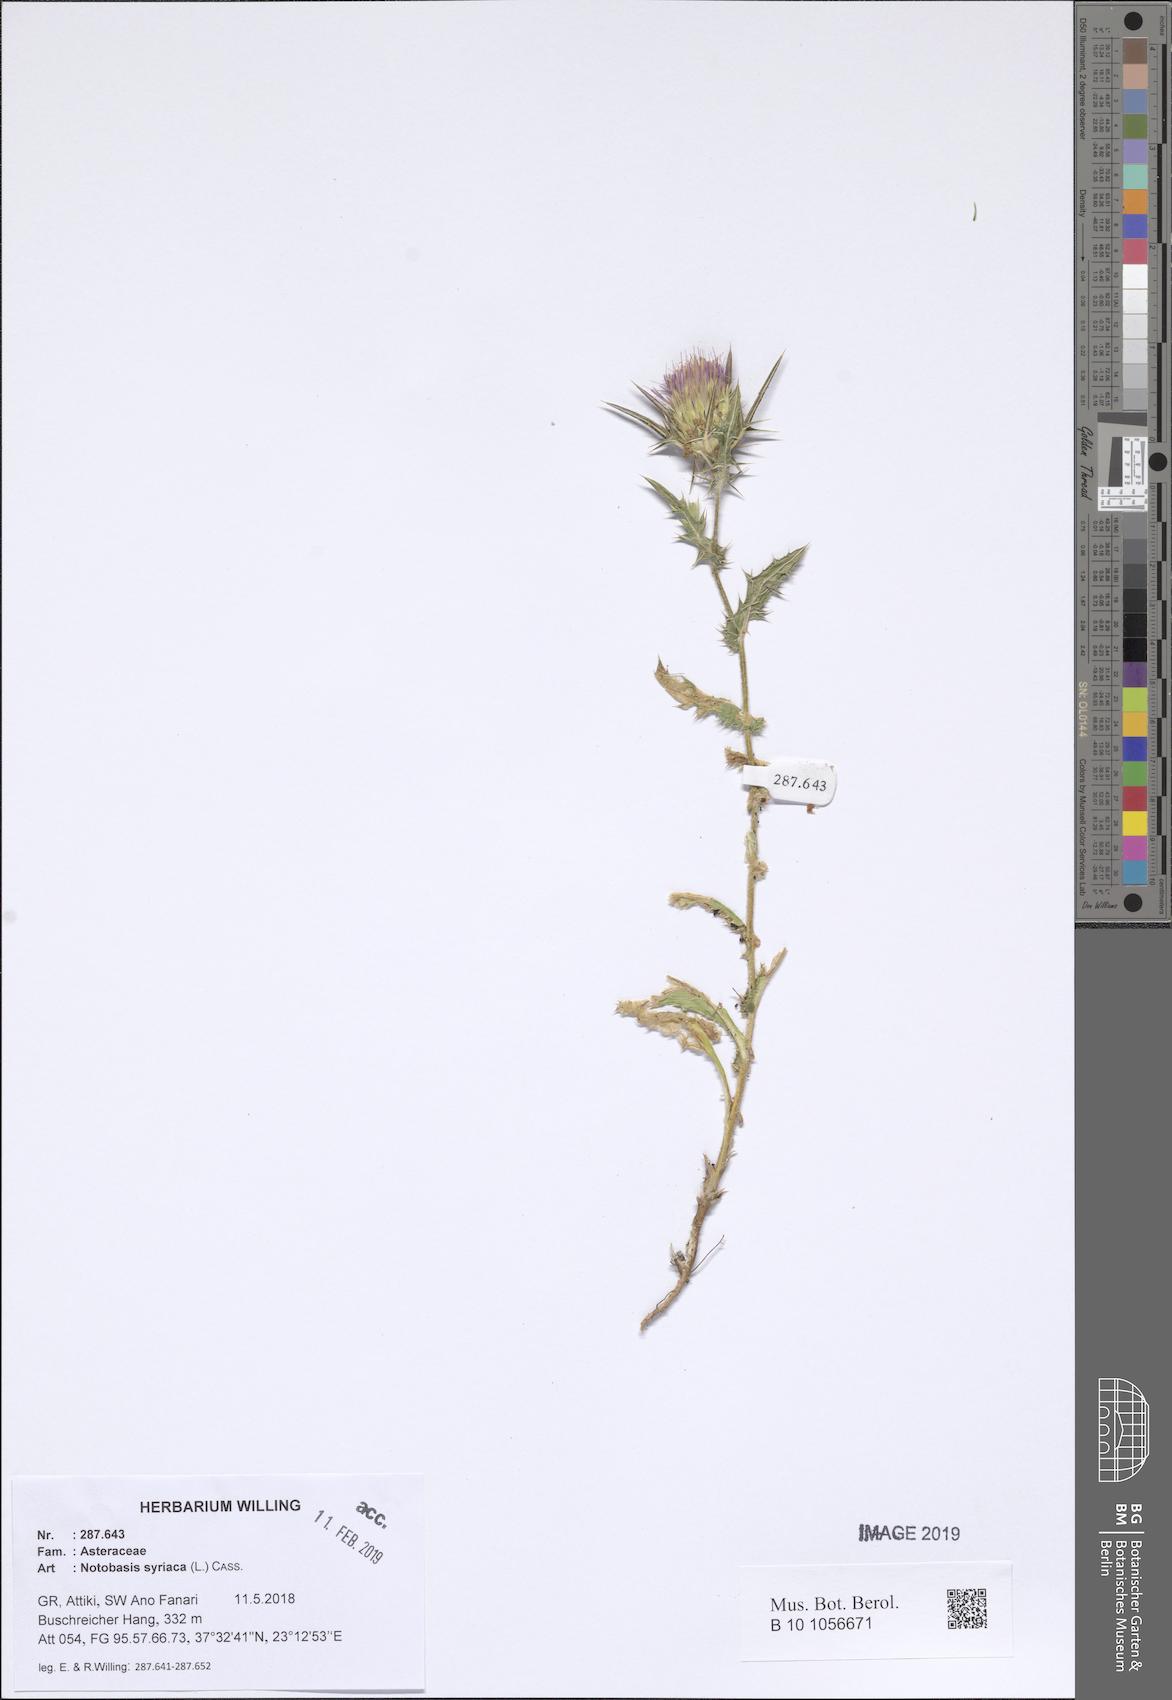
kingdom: Plantae
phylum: Tracheophyta
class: Magnoliopsida
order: Asterales
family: Asteraceae
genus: Notobasis
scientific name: Notobasis syriaca
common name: Syrian thistle
